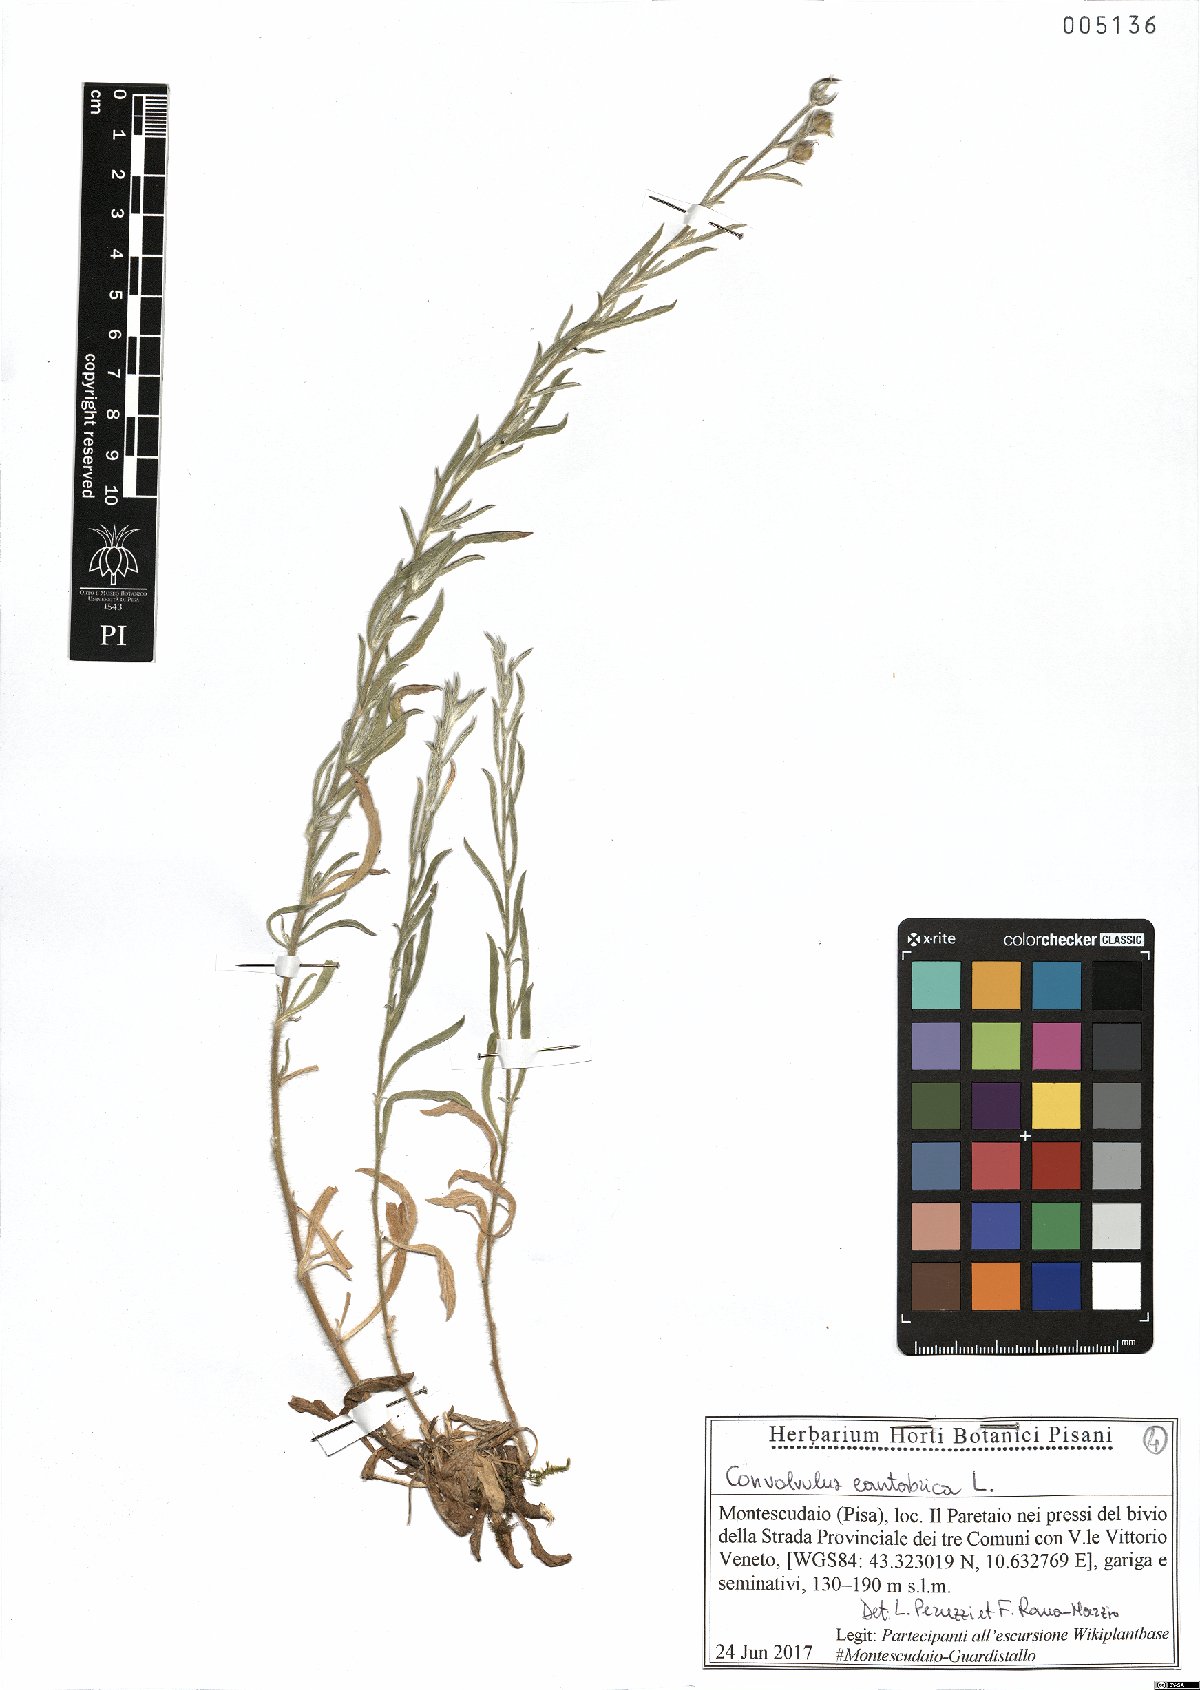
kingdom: Plantae
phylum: Tracheophyta
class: Magnoliopsida
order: Solanales
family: Convolvulaceae
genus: Convolvulus
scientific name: Convolvulus cantabrica
